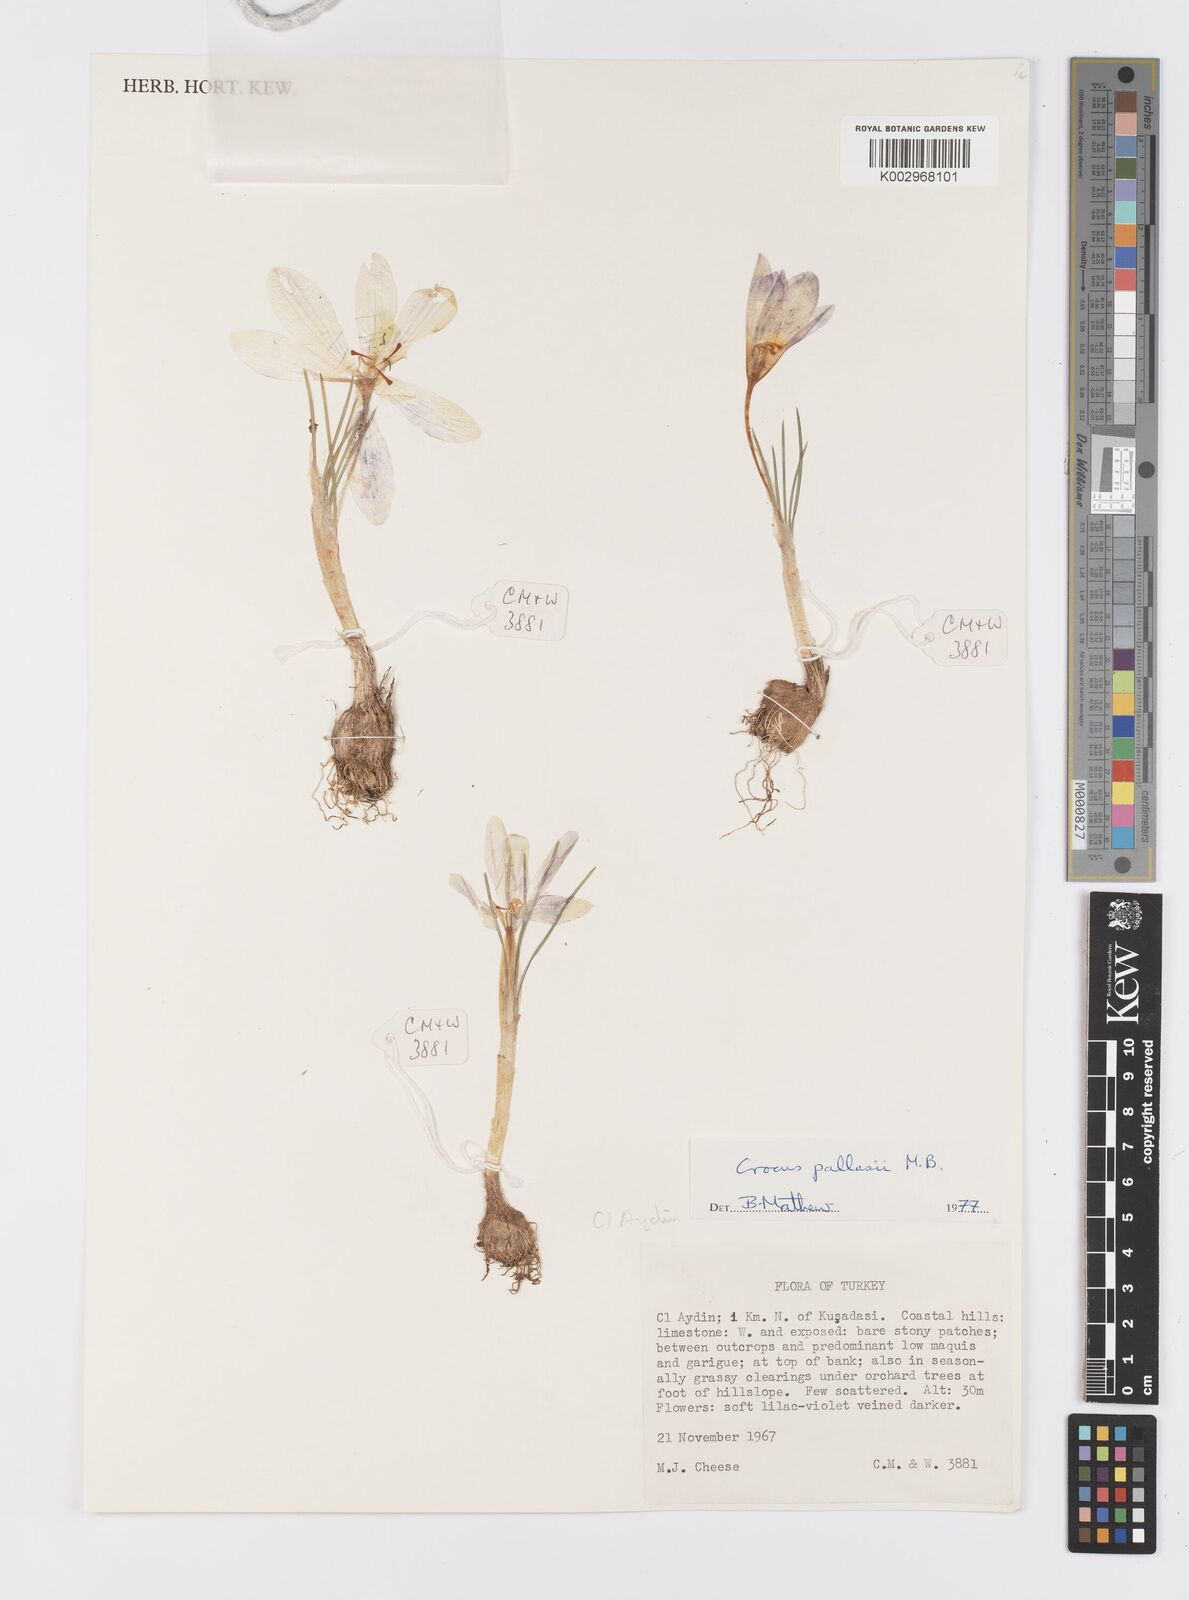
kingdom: Plantae
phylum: Tracheophyta
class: Liliopsida
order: Asparagales
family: Iridaceae
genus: Crocus
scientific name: Crocus
